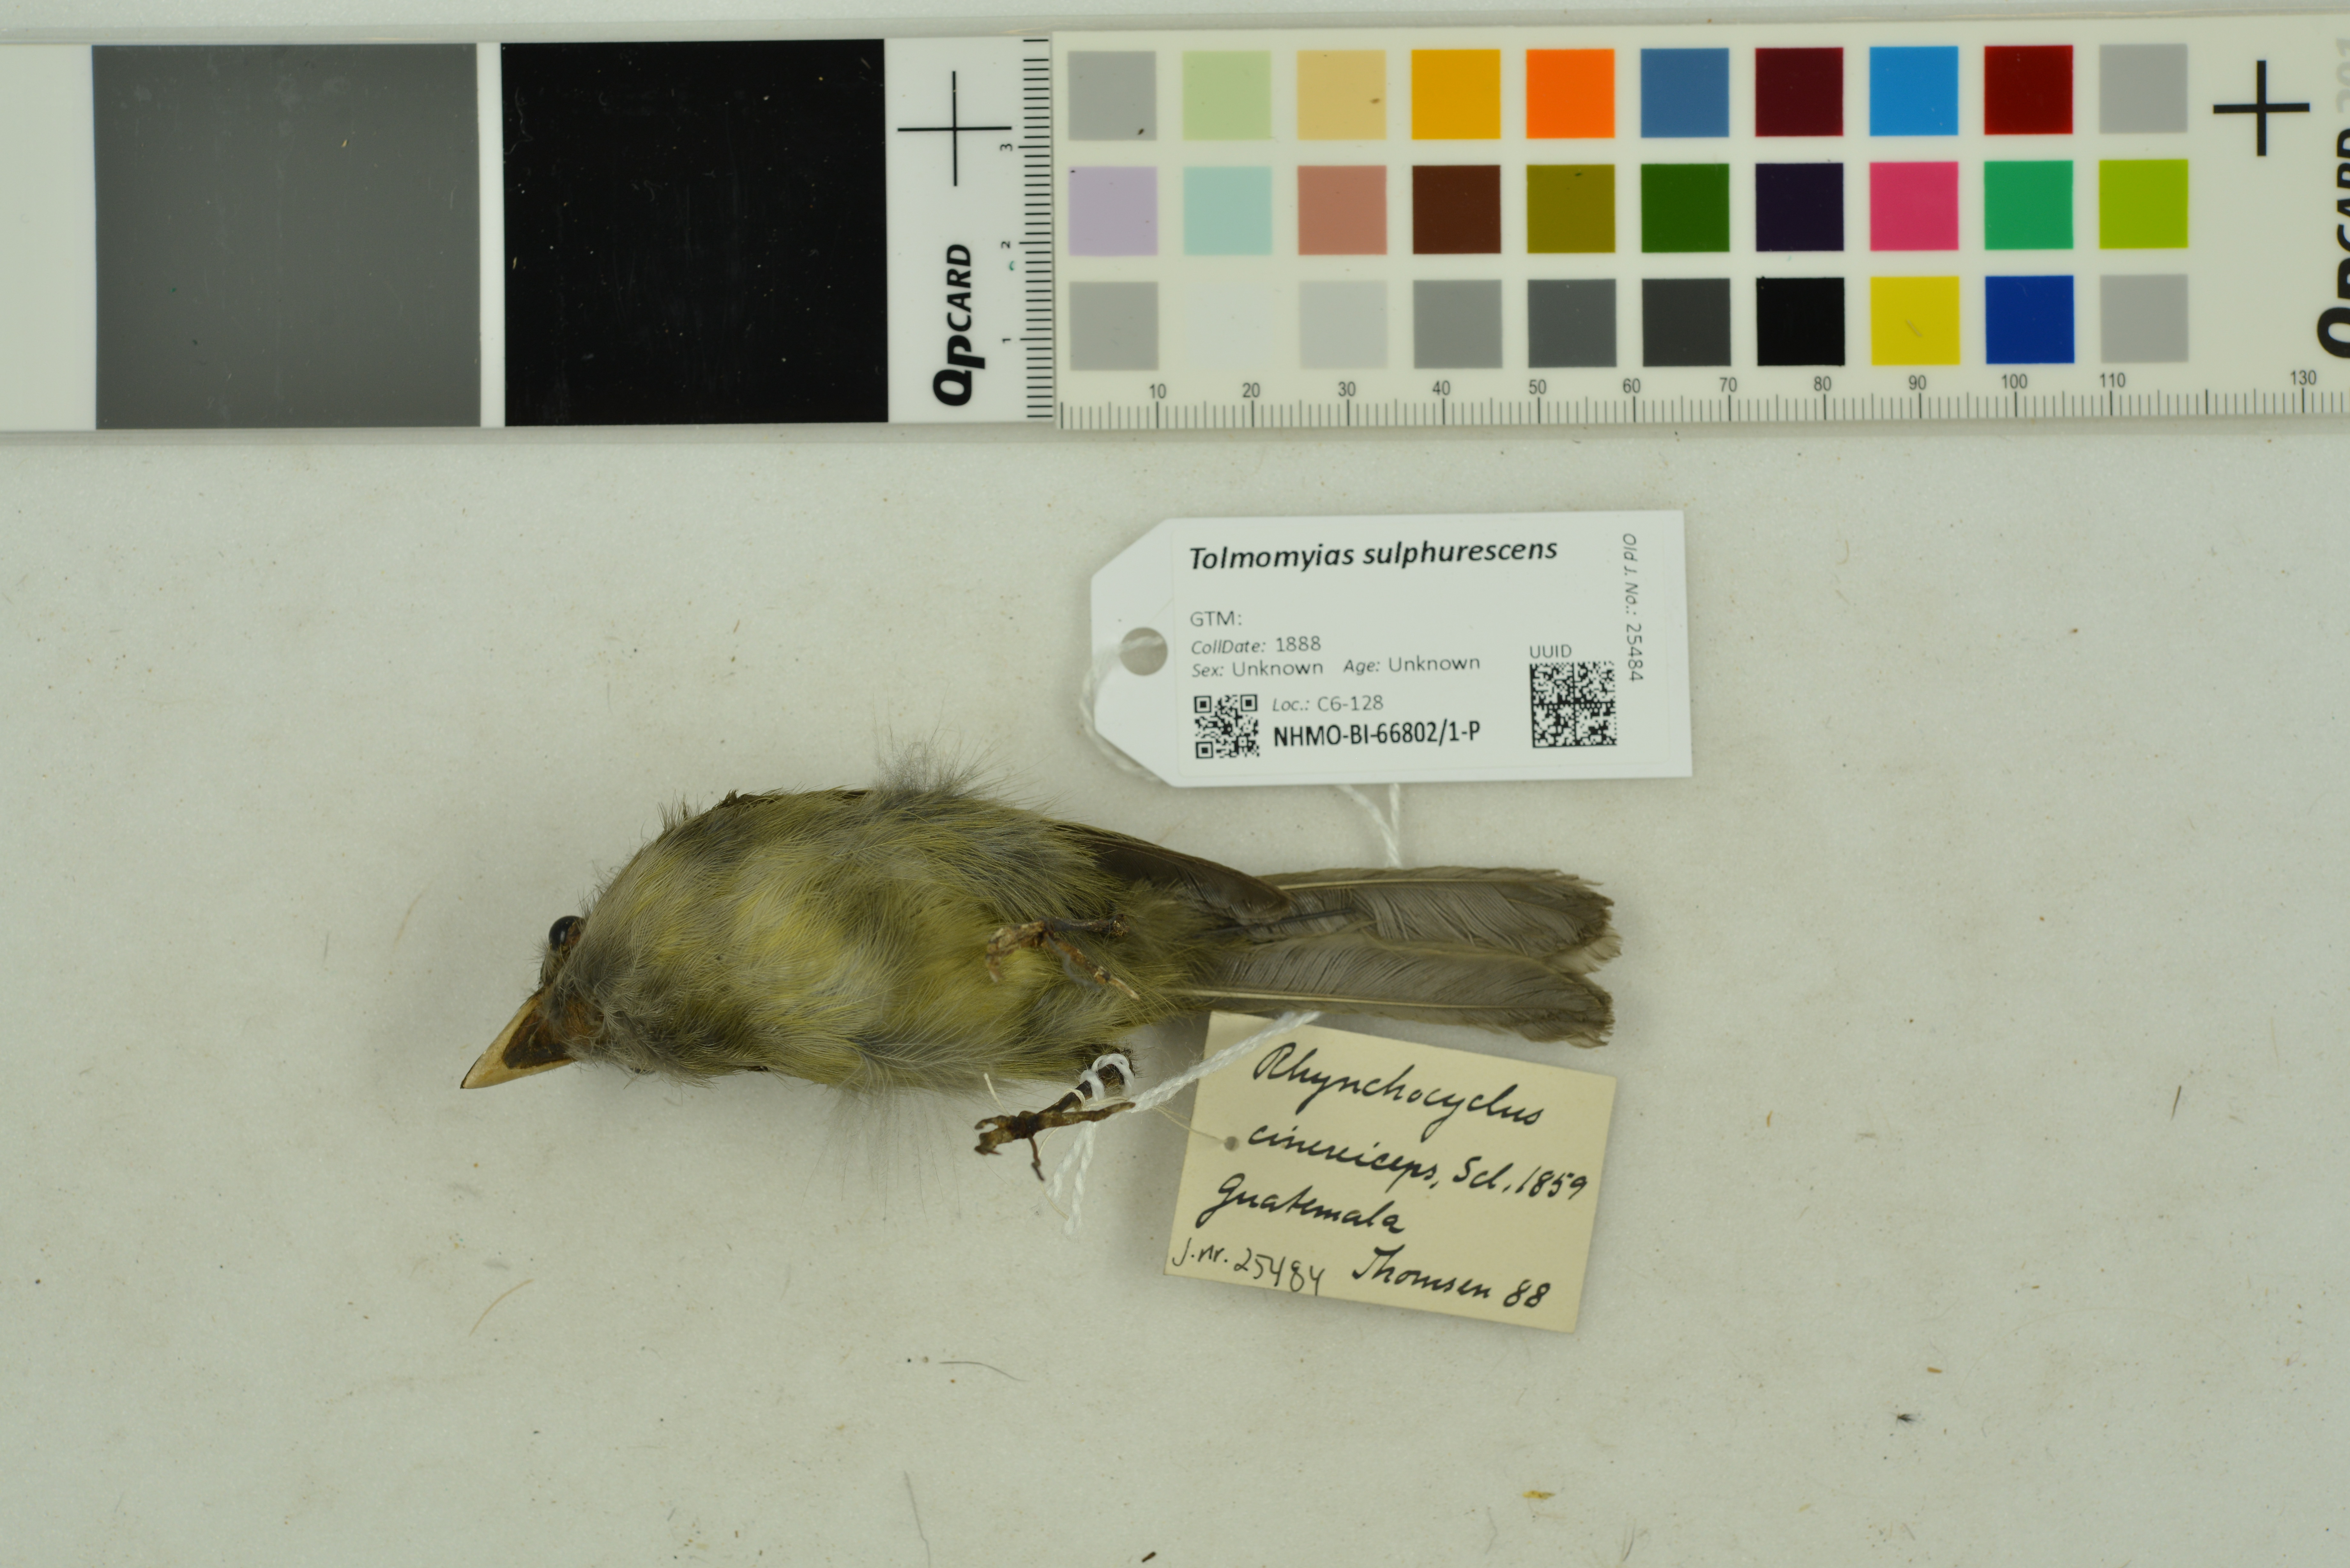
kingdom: Animalia
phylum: Chordata
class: Aves
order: Passeriformes
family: Tyrannidae
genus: Tolmomyias
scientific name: Tolmomyias sulphurescens
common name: Yellow-olive flycatcher
